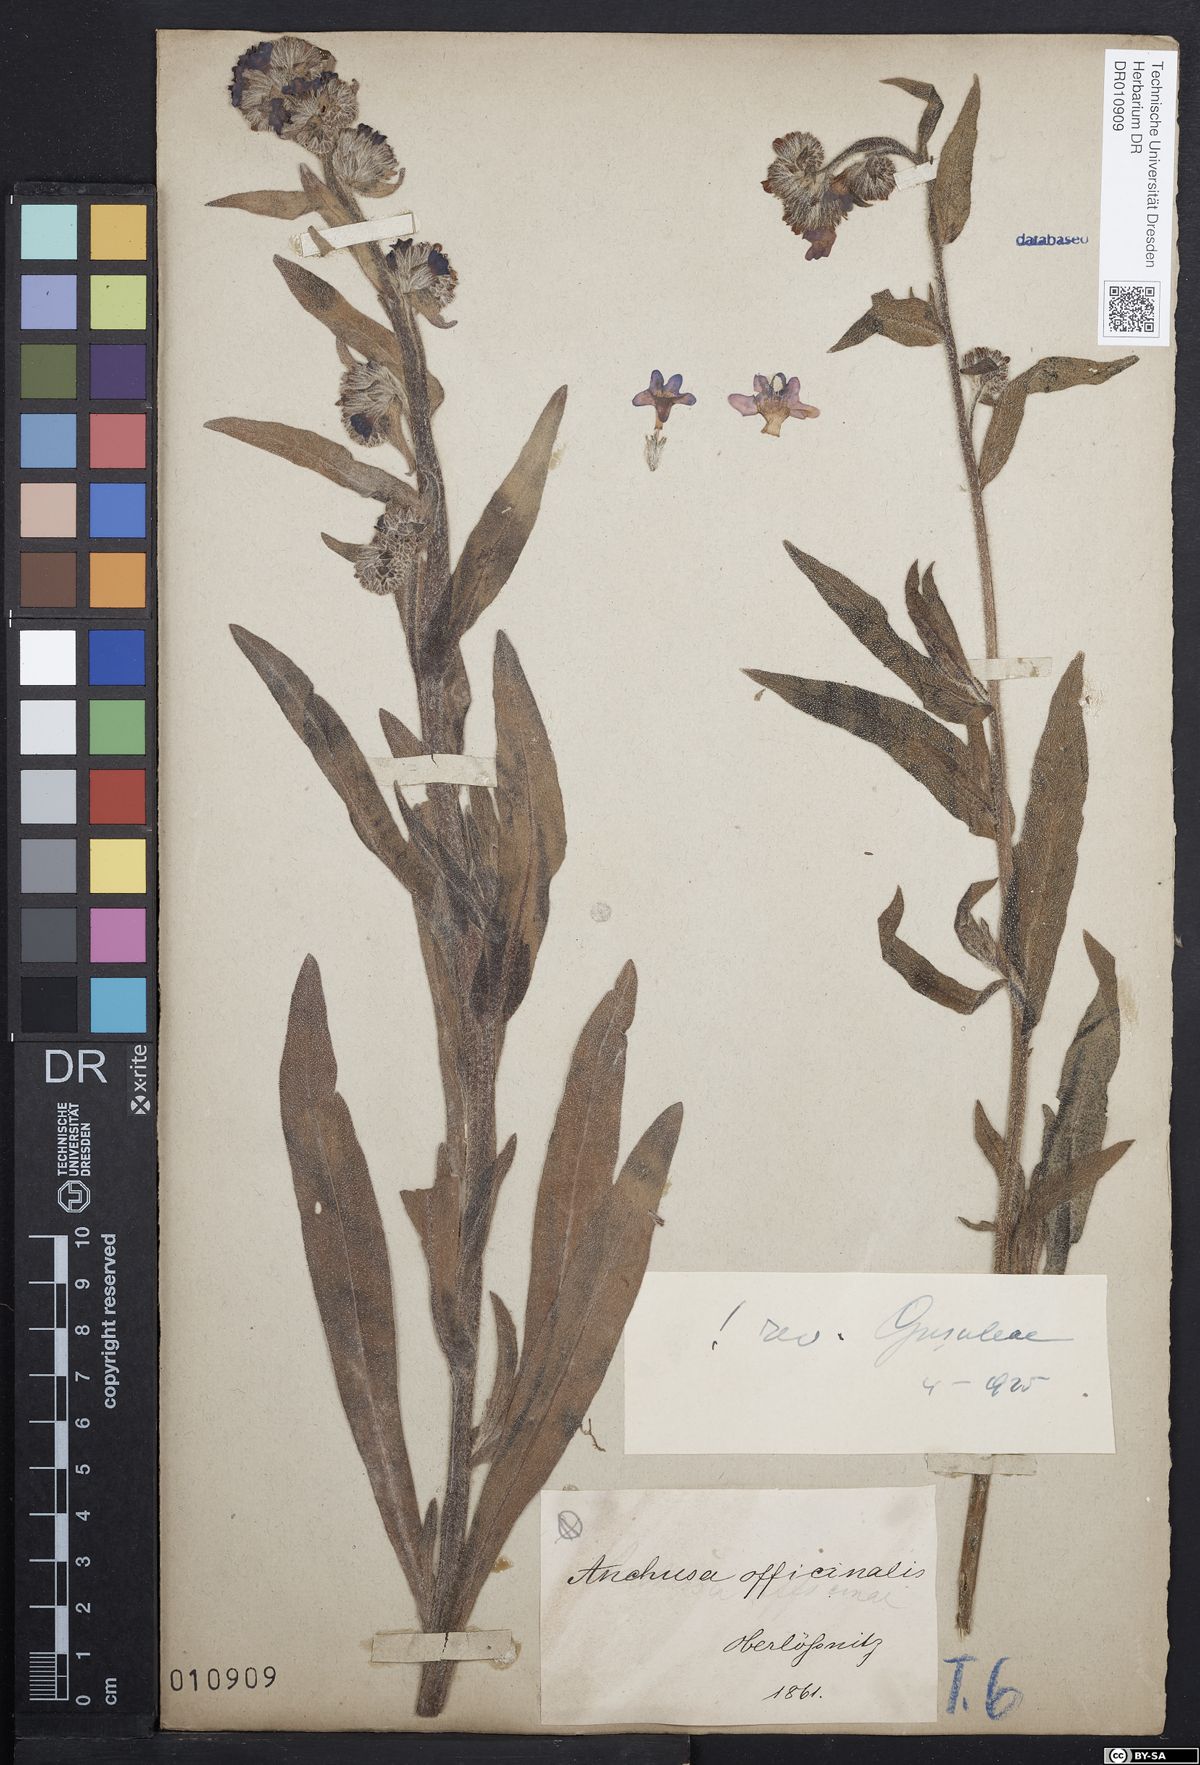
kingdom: Plantae
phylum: Tracheophyta
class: Magnoliopsida
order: Boraginales
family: Boraginaceae
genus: Anchusa
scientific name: Anchusa officinalis
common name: Alkanet
